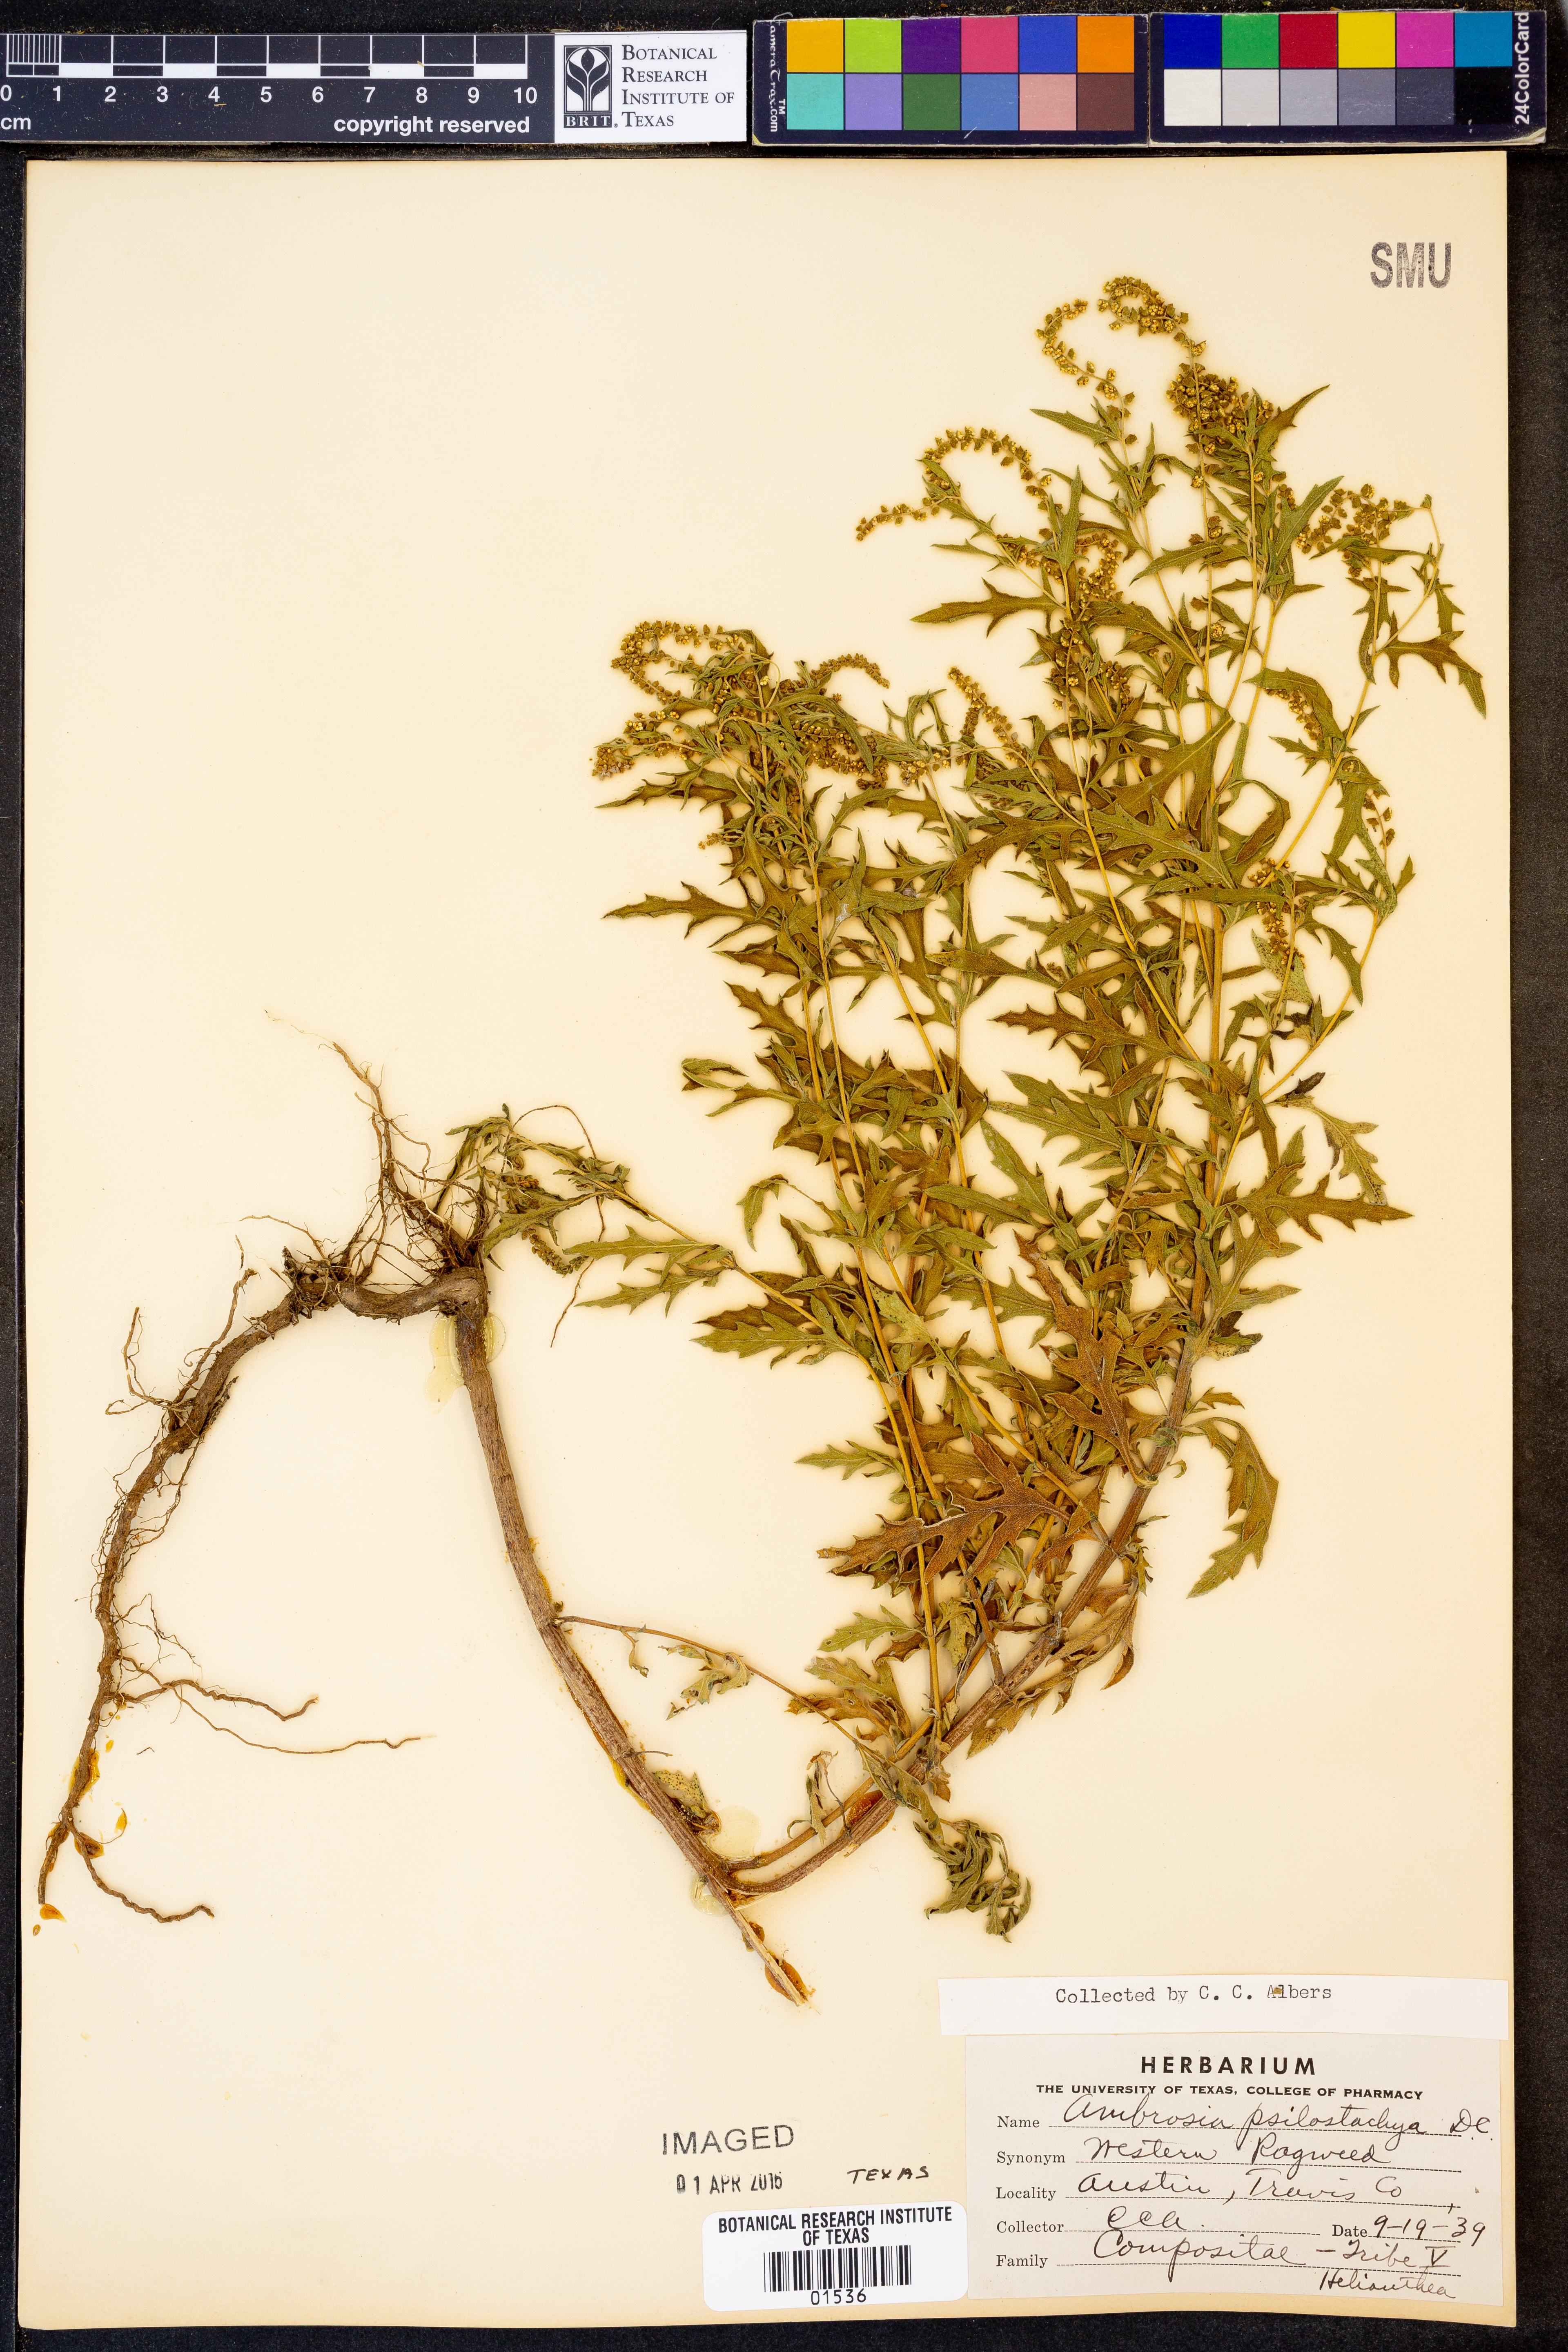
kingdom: Plantae
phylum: Tracheophyta
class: Magnoliopsida
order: Asterales
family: Asteraceae
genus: Ambrosia
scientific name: Ambrosia psilostachya
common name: Perennial ragweed
